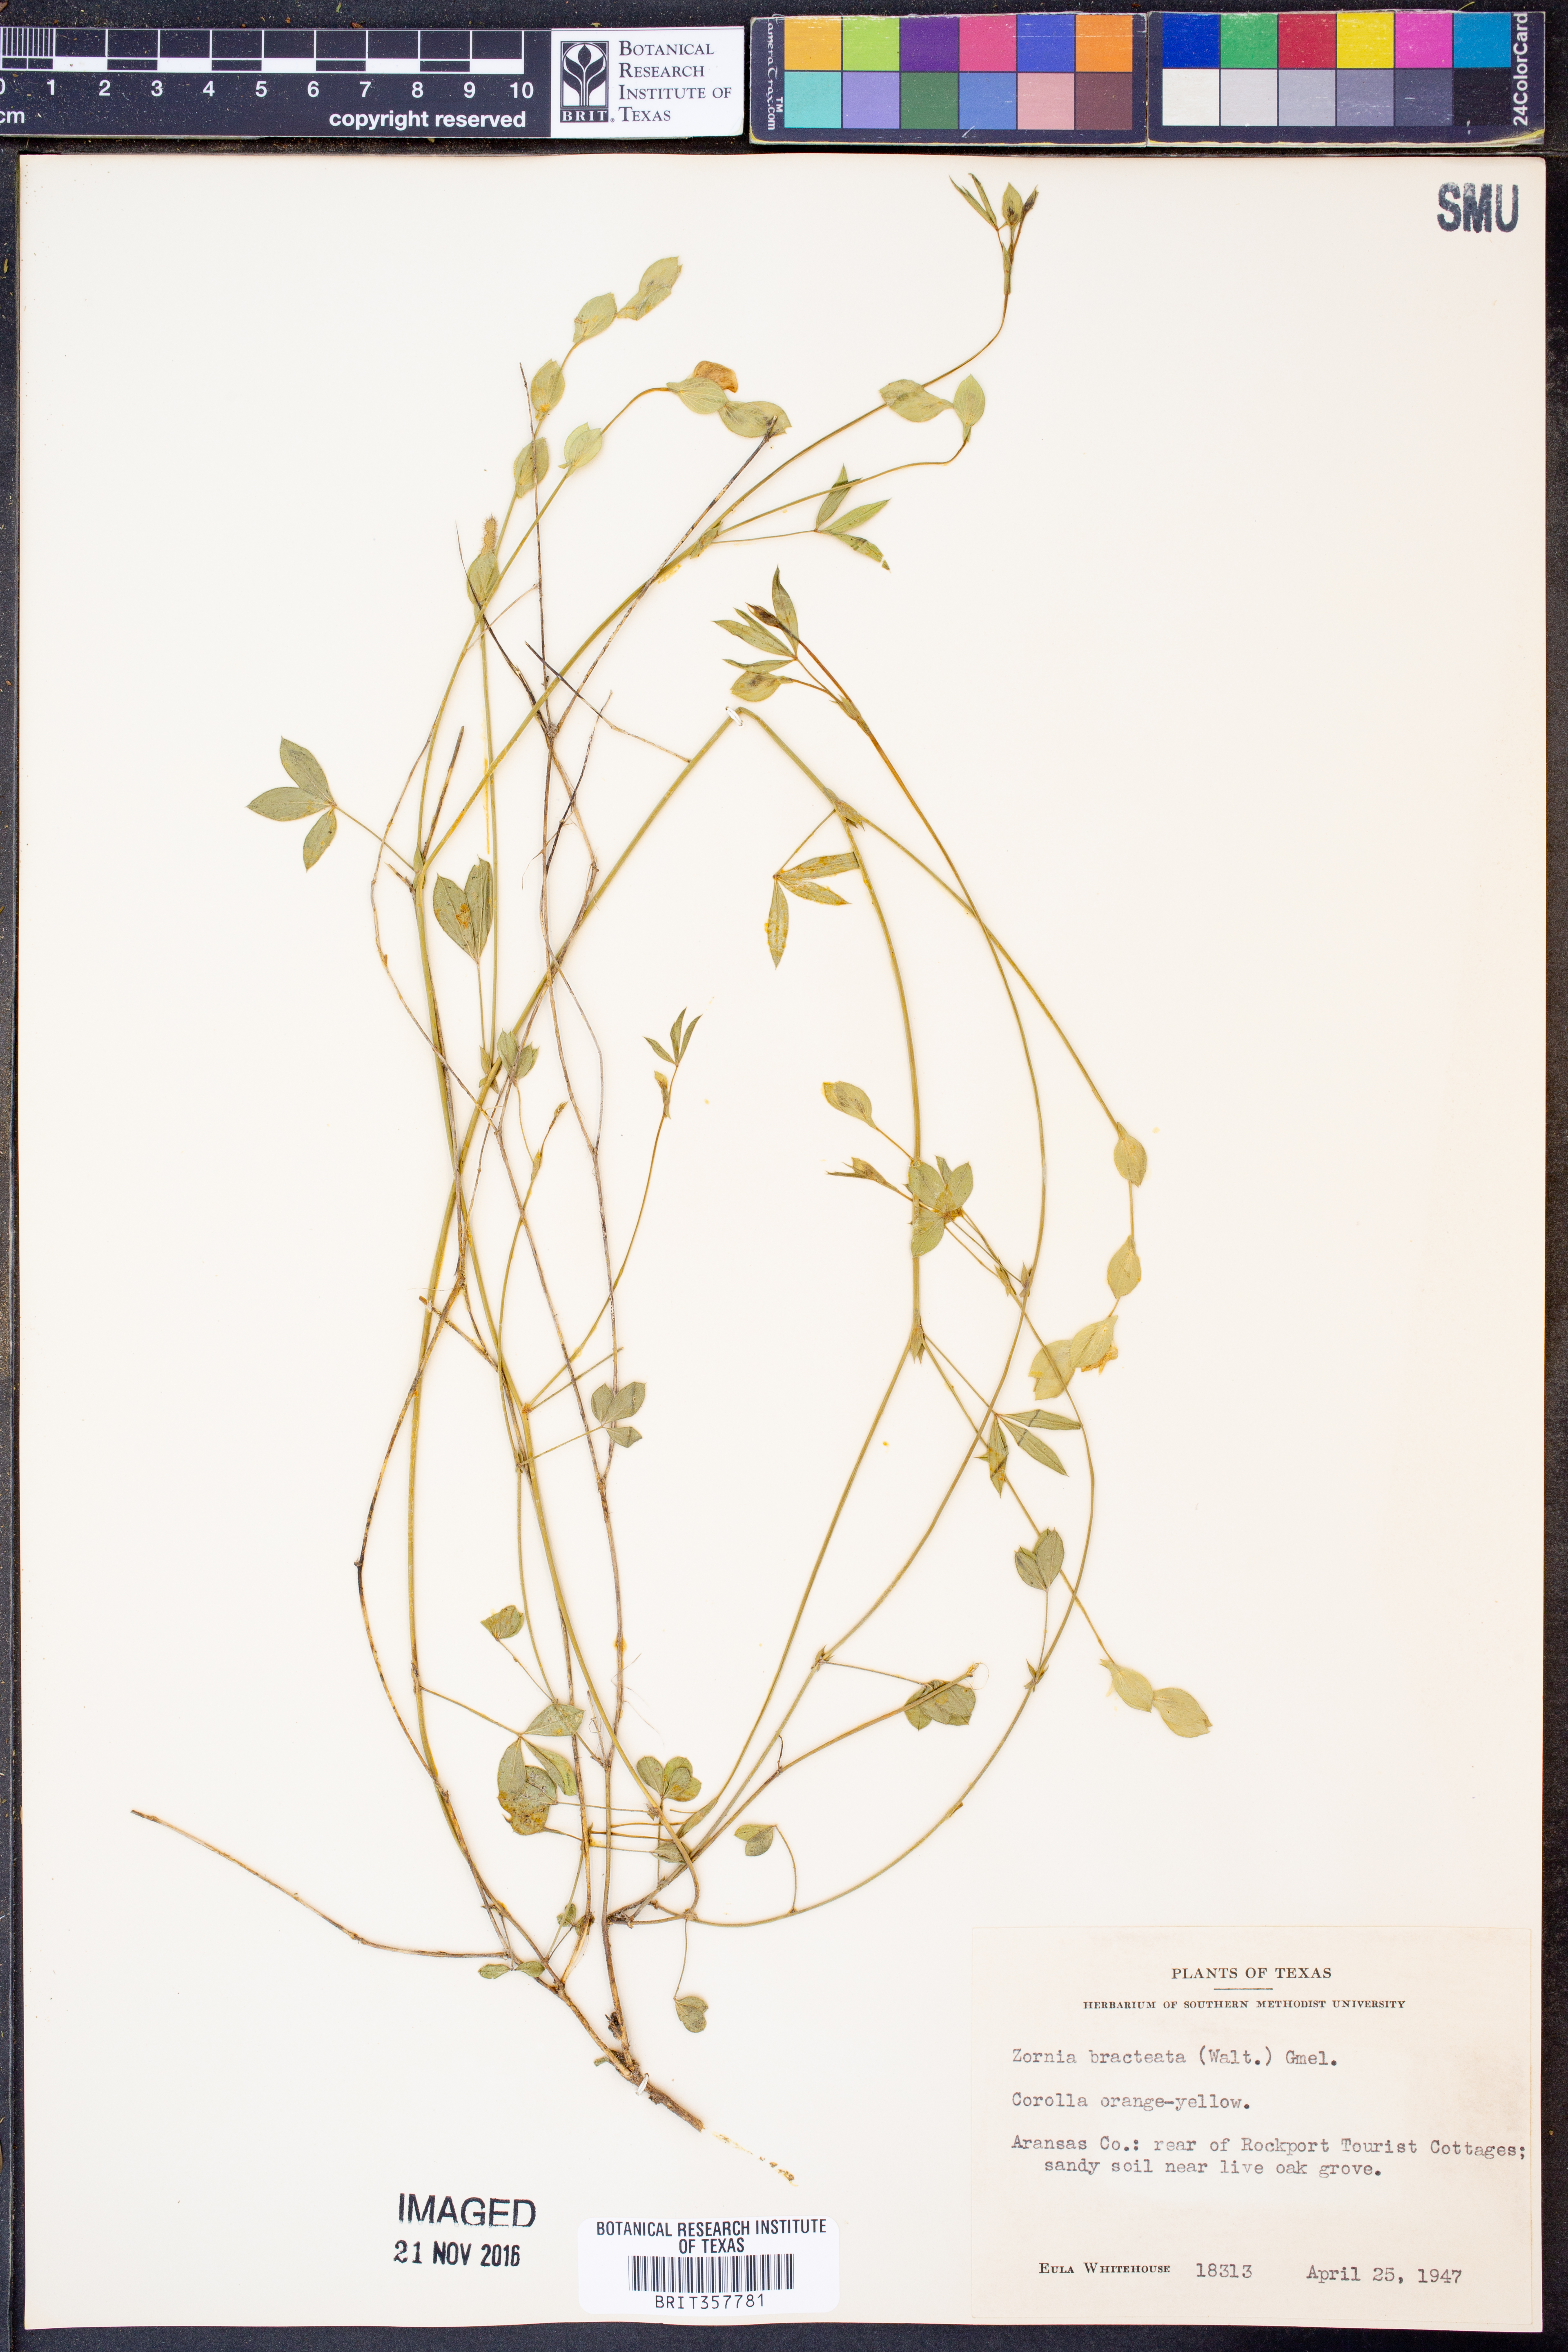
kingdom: Plantae
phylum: Tracheophyta
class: Magnoliopsida
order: Fabales
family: Fabaceae
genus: Zornia
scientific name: Zornia bracteata
